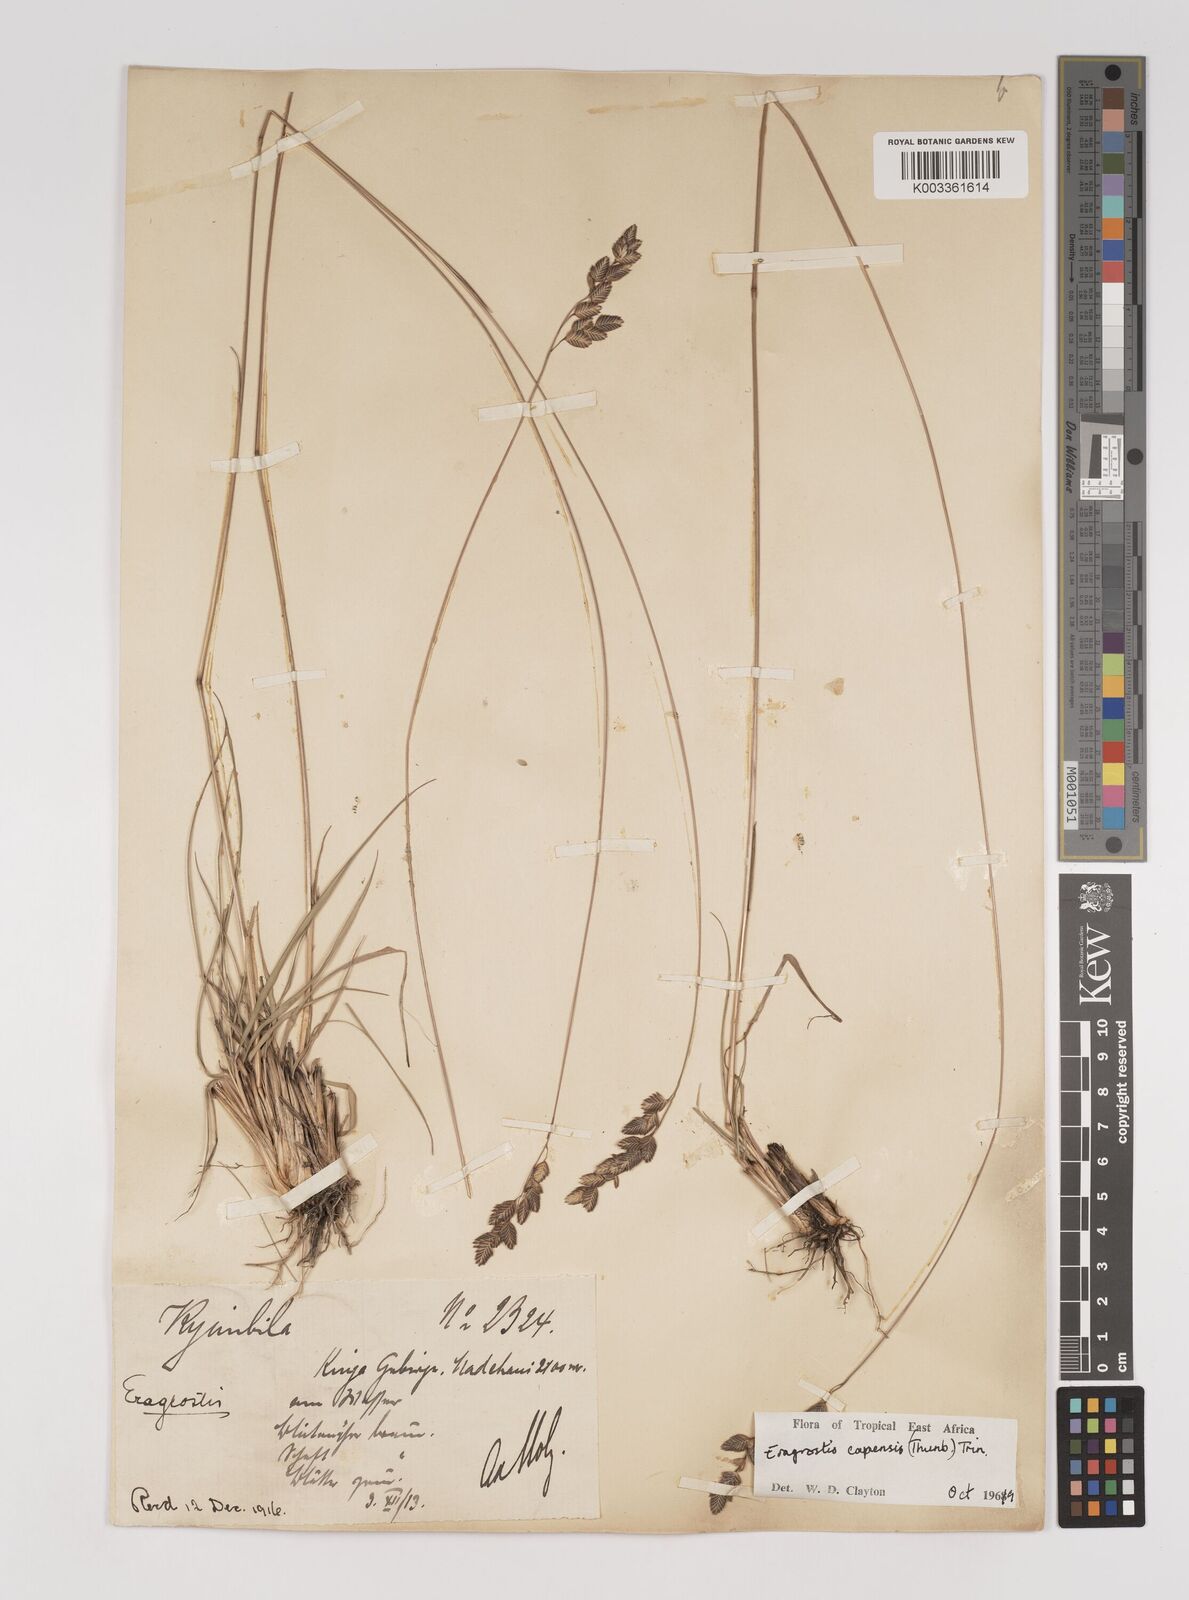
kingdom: Plantae
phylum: Tracheophyta
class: Liliopsida
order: Poales
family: Poaceae
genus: Eragrostis
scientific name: Eragrostis capensis
